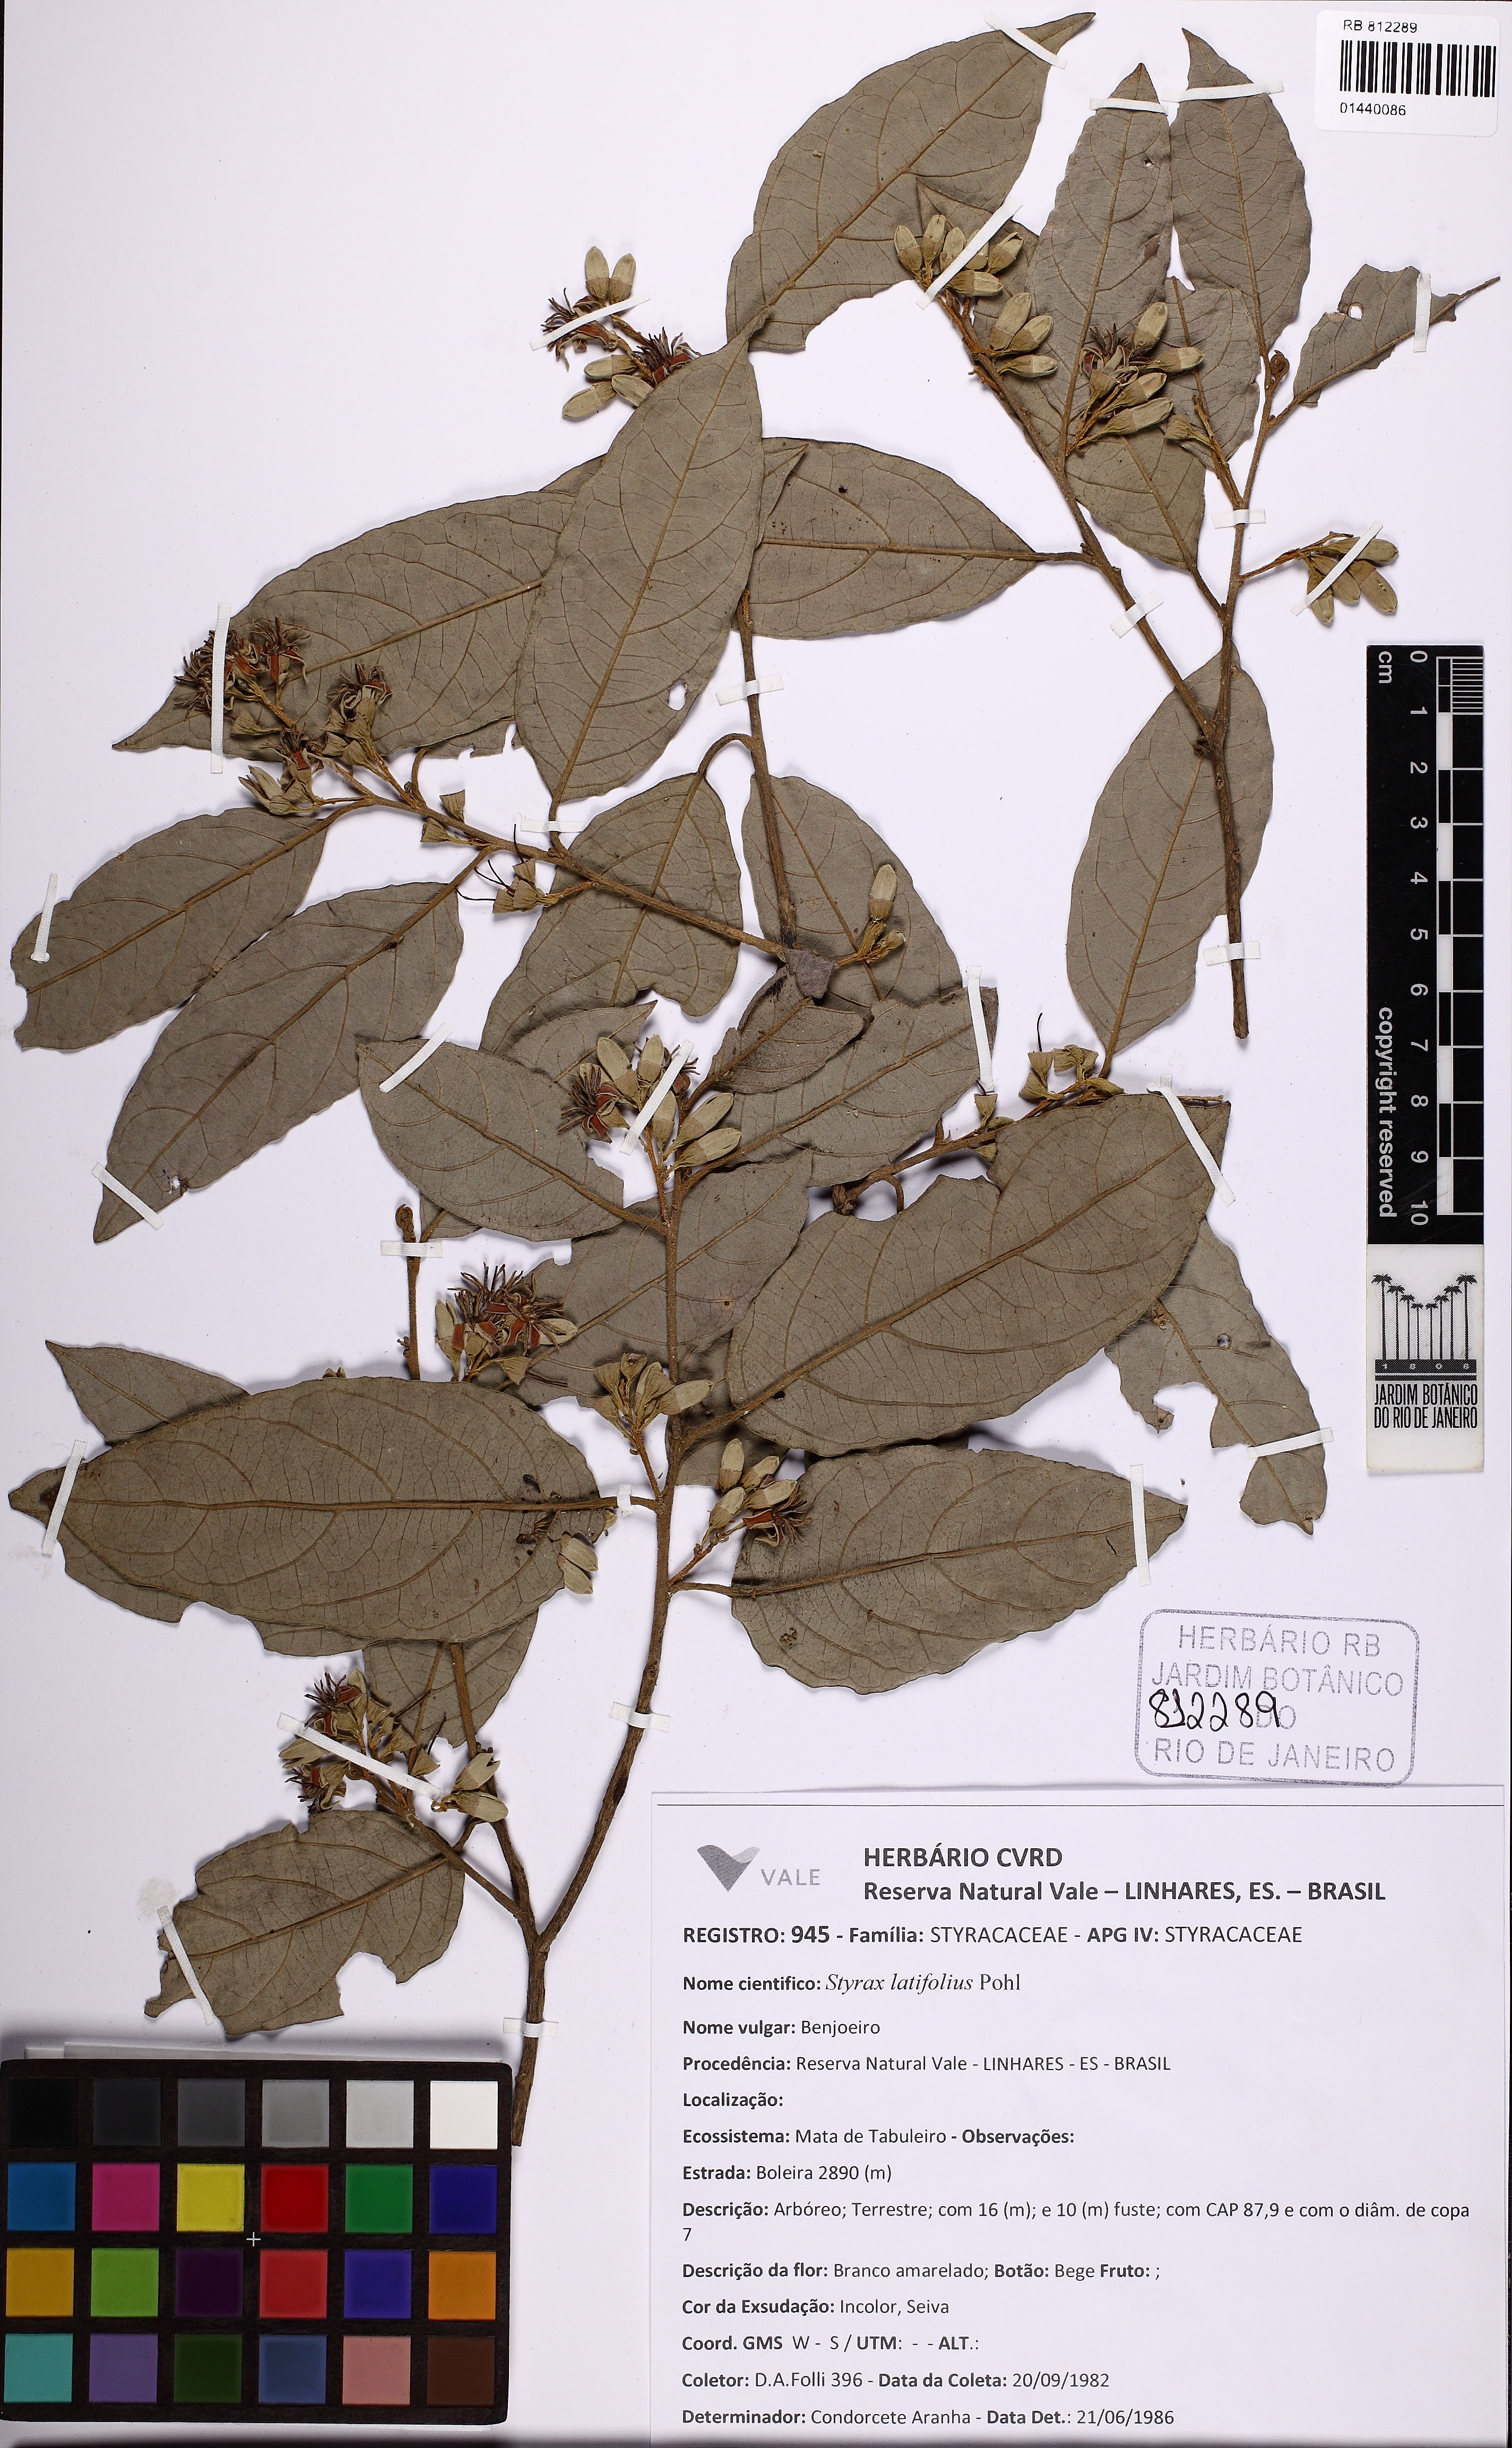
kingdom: Plantae
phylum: Tracheophyta
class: Magnoliopsida
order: Ericales
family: Styracaceae
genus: Styrax
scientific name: Styrax latifolius
